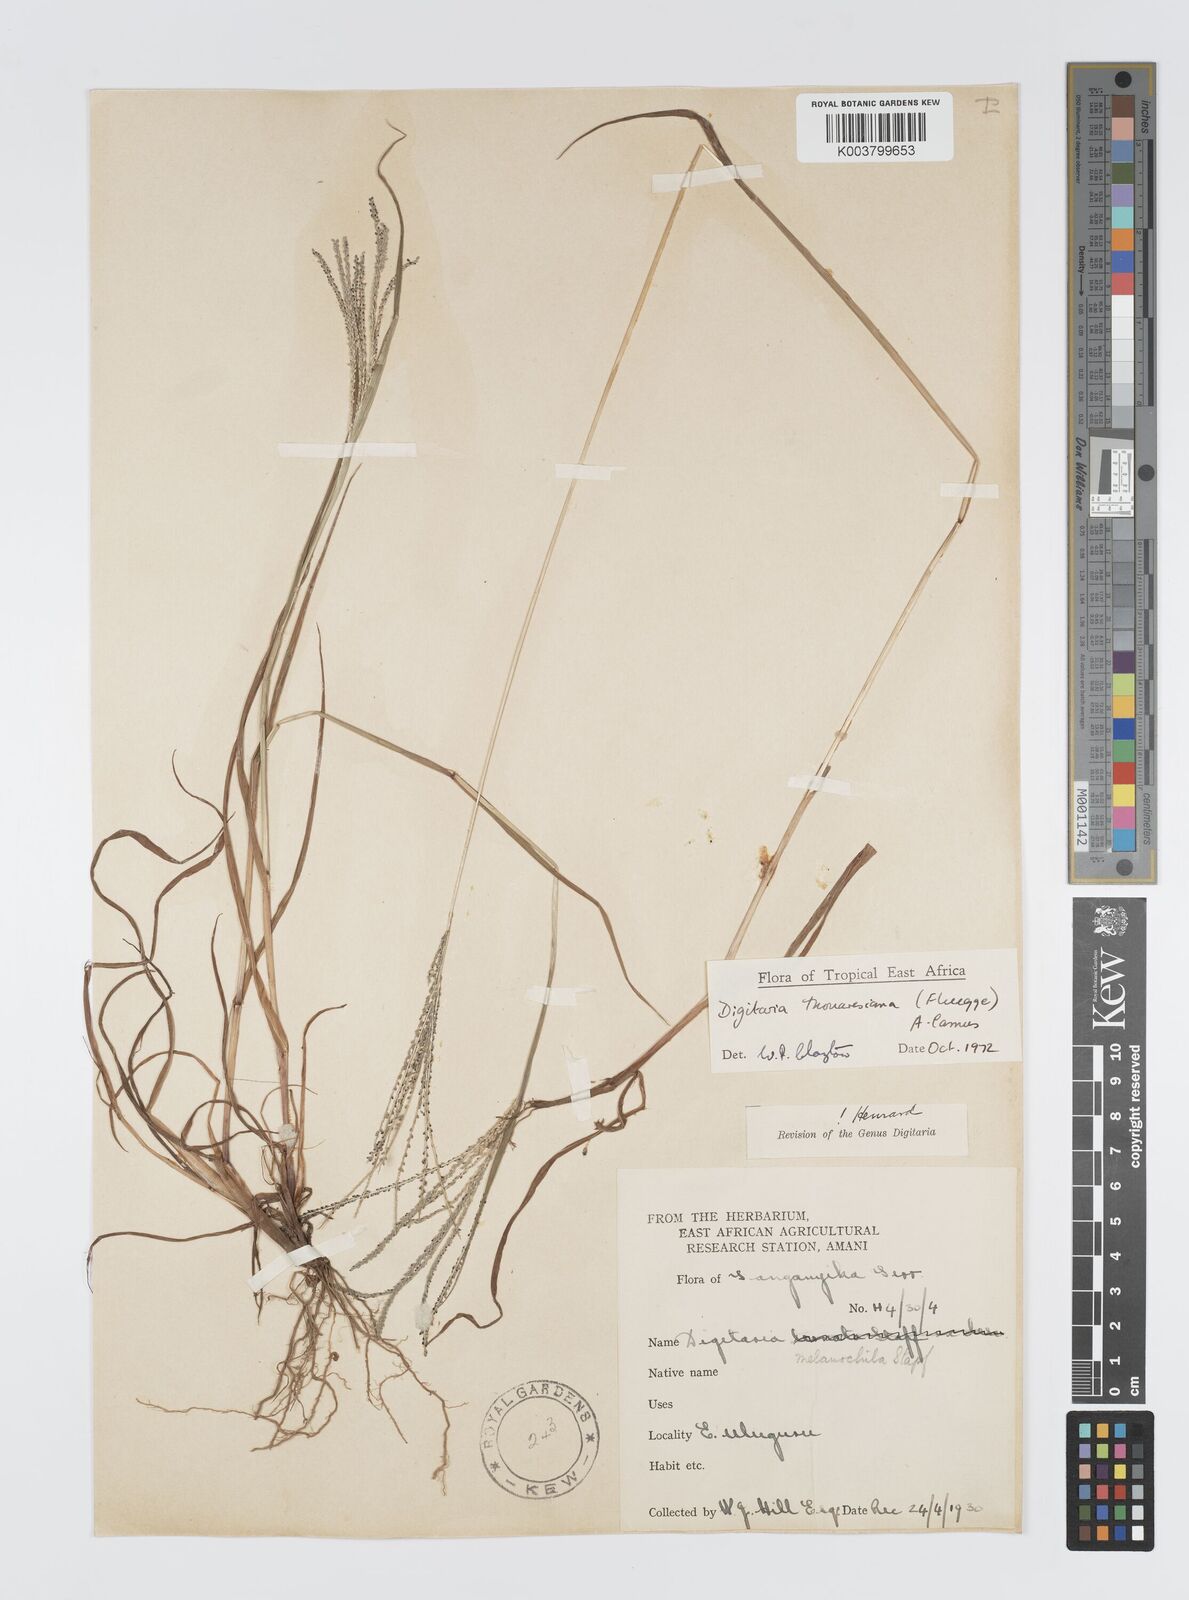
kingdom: Plantae
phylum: Tracheophyta
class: Liliopsida
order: Poales
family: Poaceae
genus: Digitaria
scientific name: Digitaria thouarsiana
